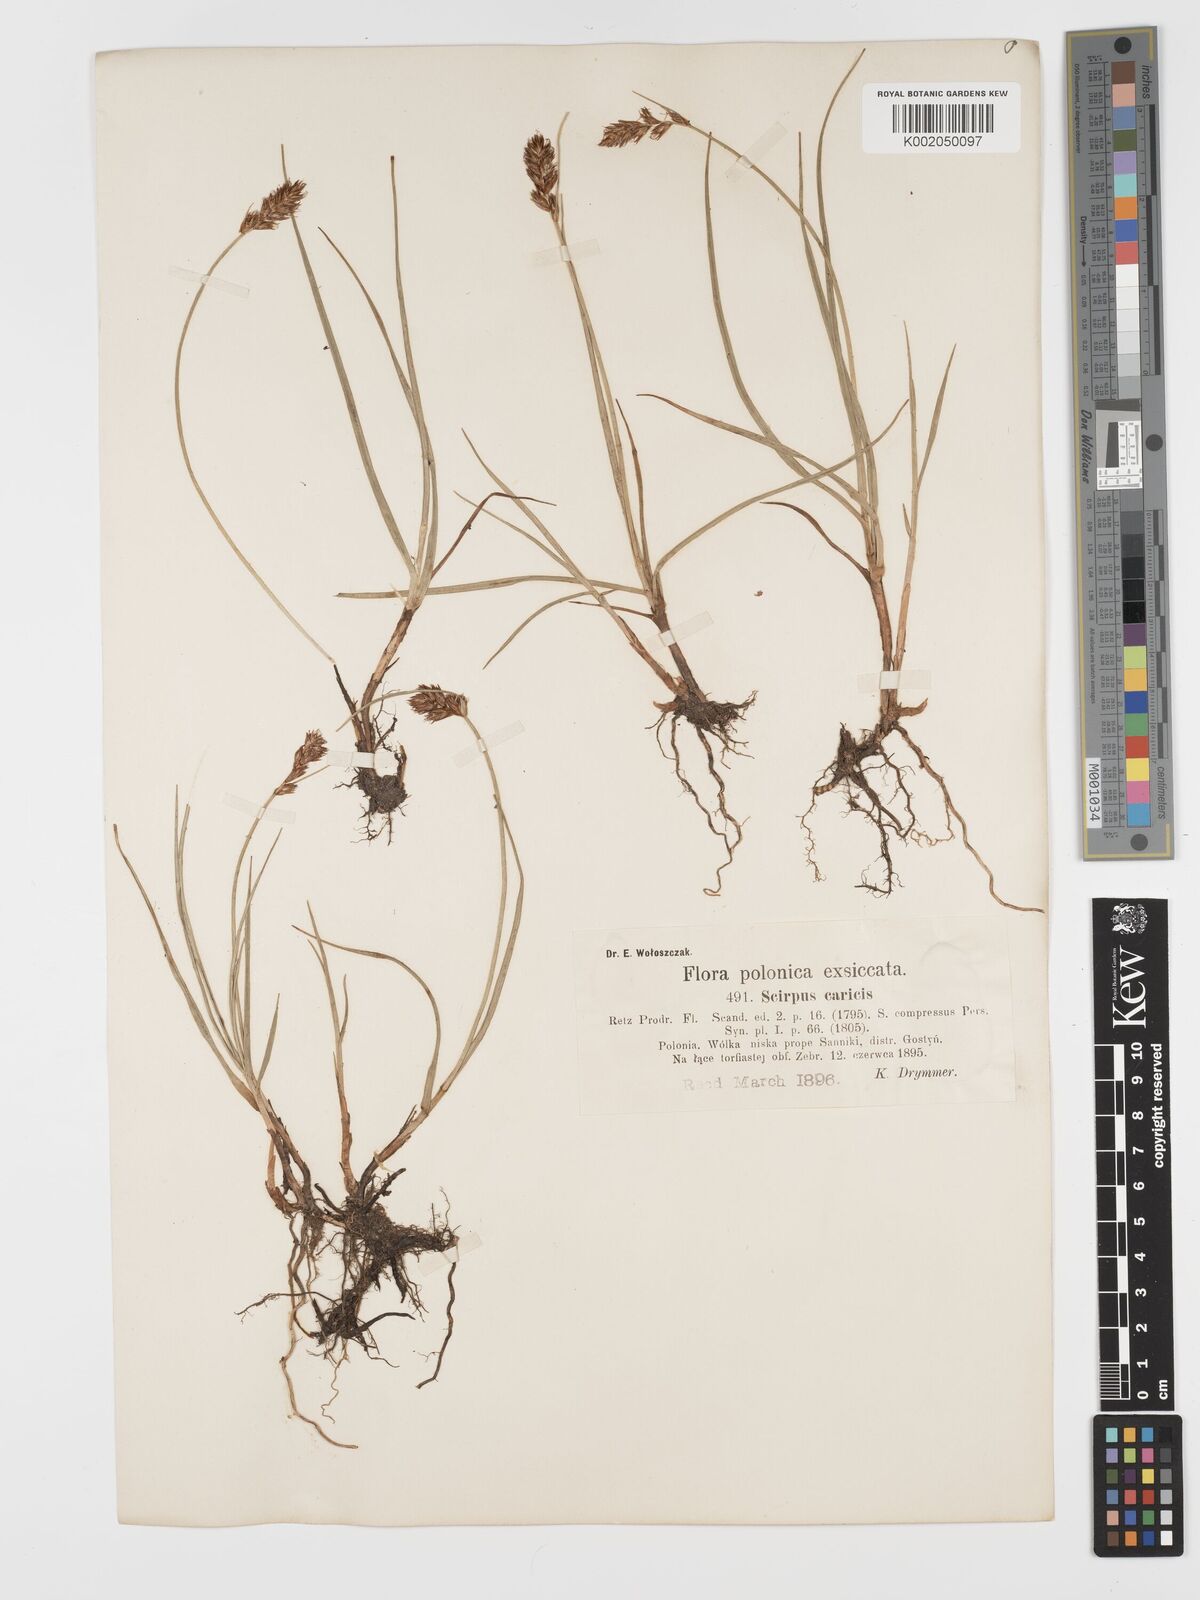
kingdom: Plantae
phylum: Tracheophyta
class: Liliopsida
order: Poales
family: Cyperaceae
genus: Blysmus
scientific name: Blysmus compressus
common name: Flat-sedge
